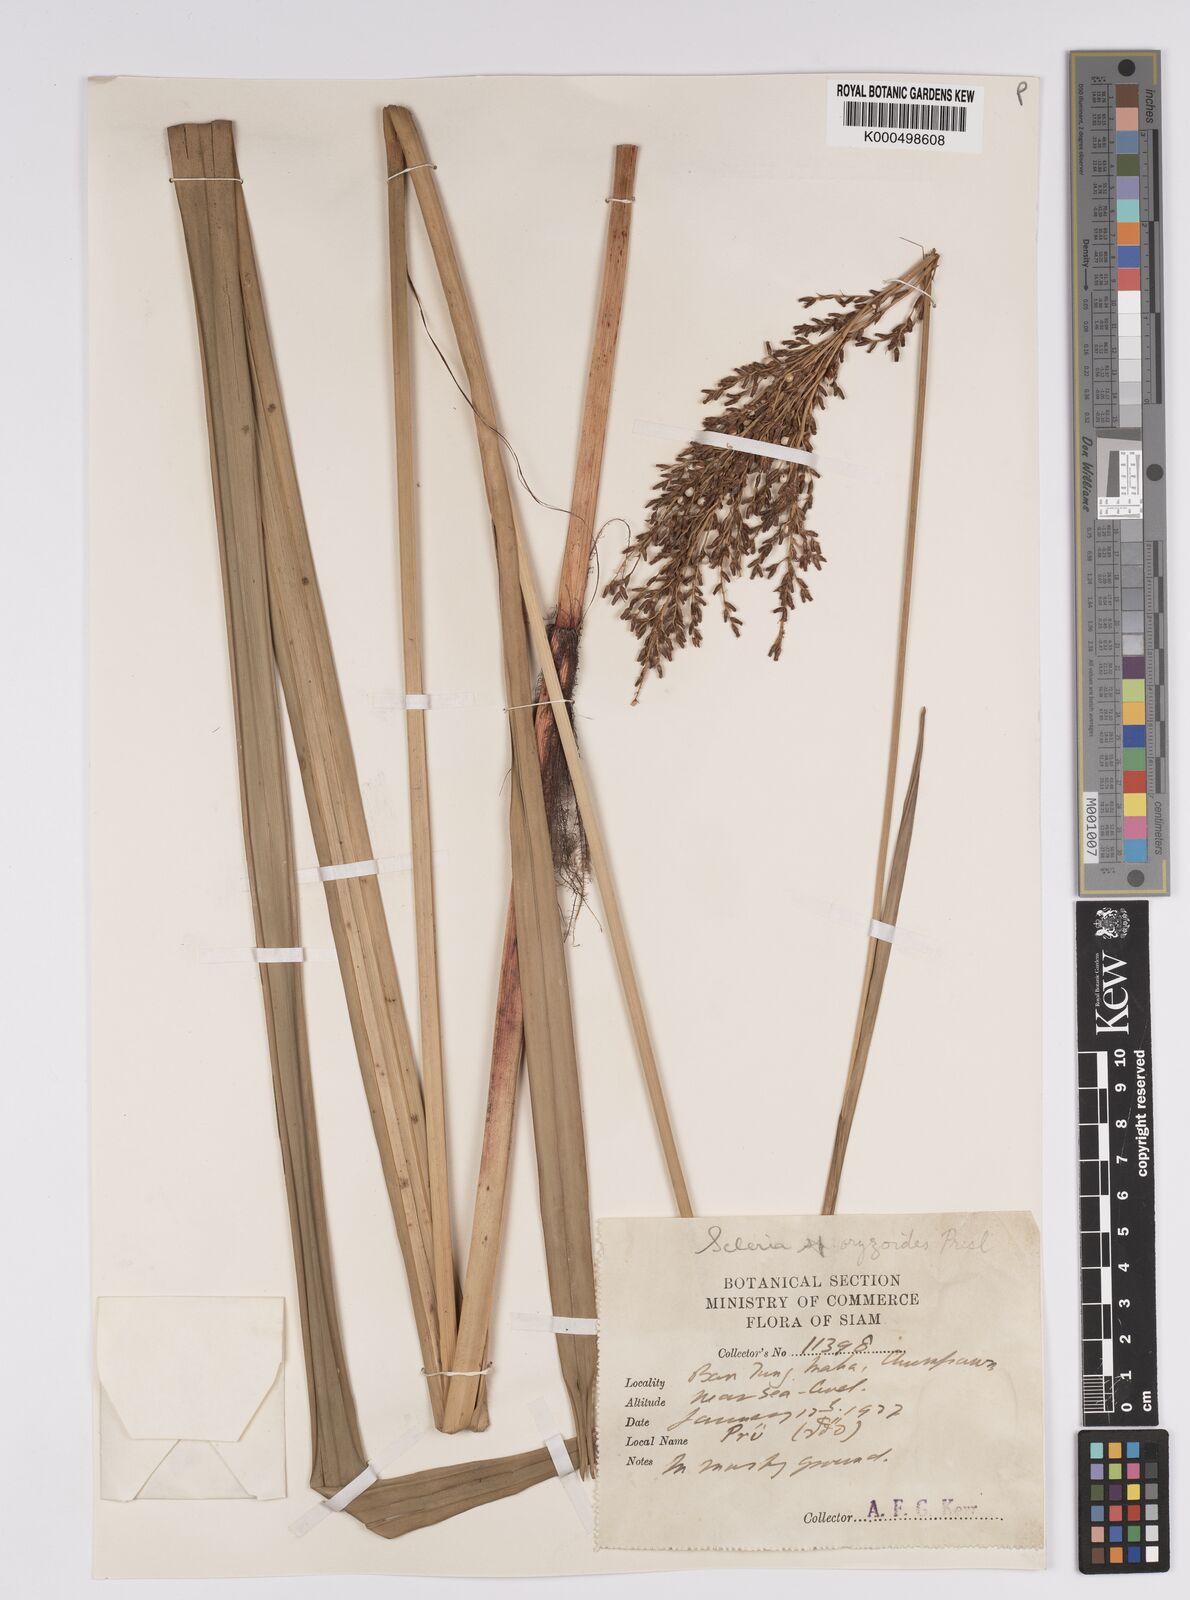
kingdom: Plantae
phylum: Tracheophyta
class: Liliopsida
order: Poales
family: Cyperaceae
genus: Scleria
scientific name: Scleria poiformis
